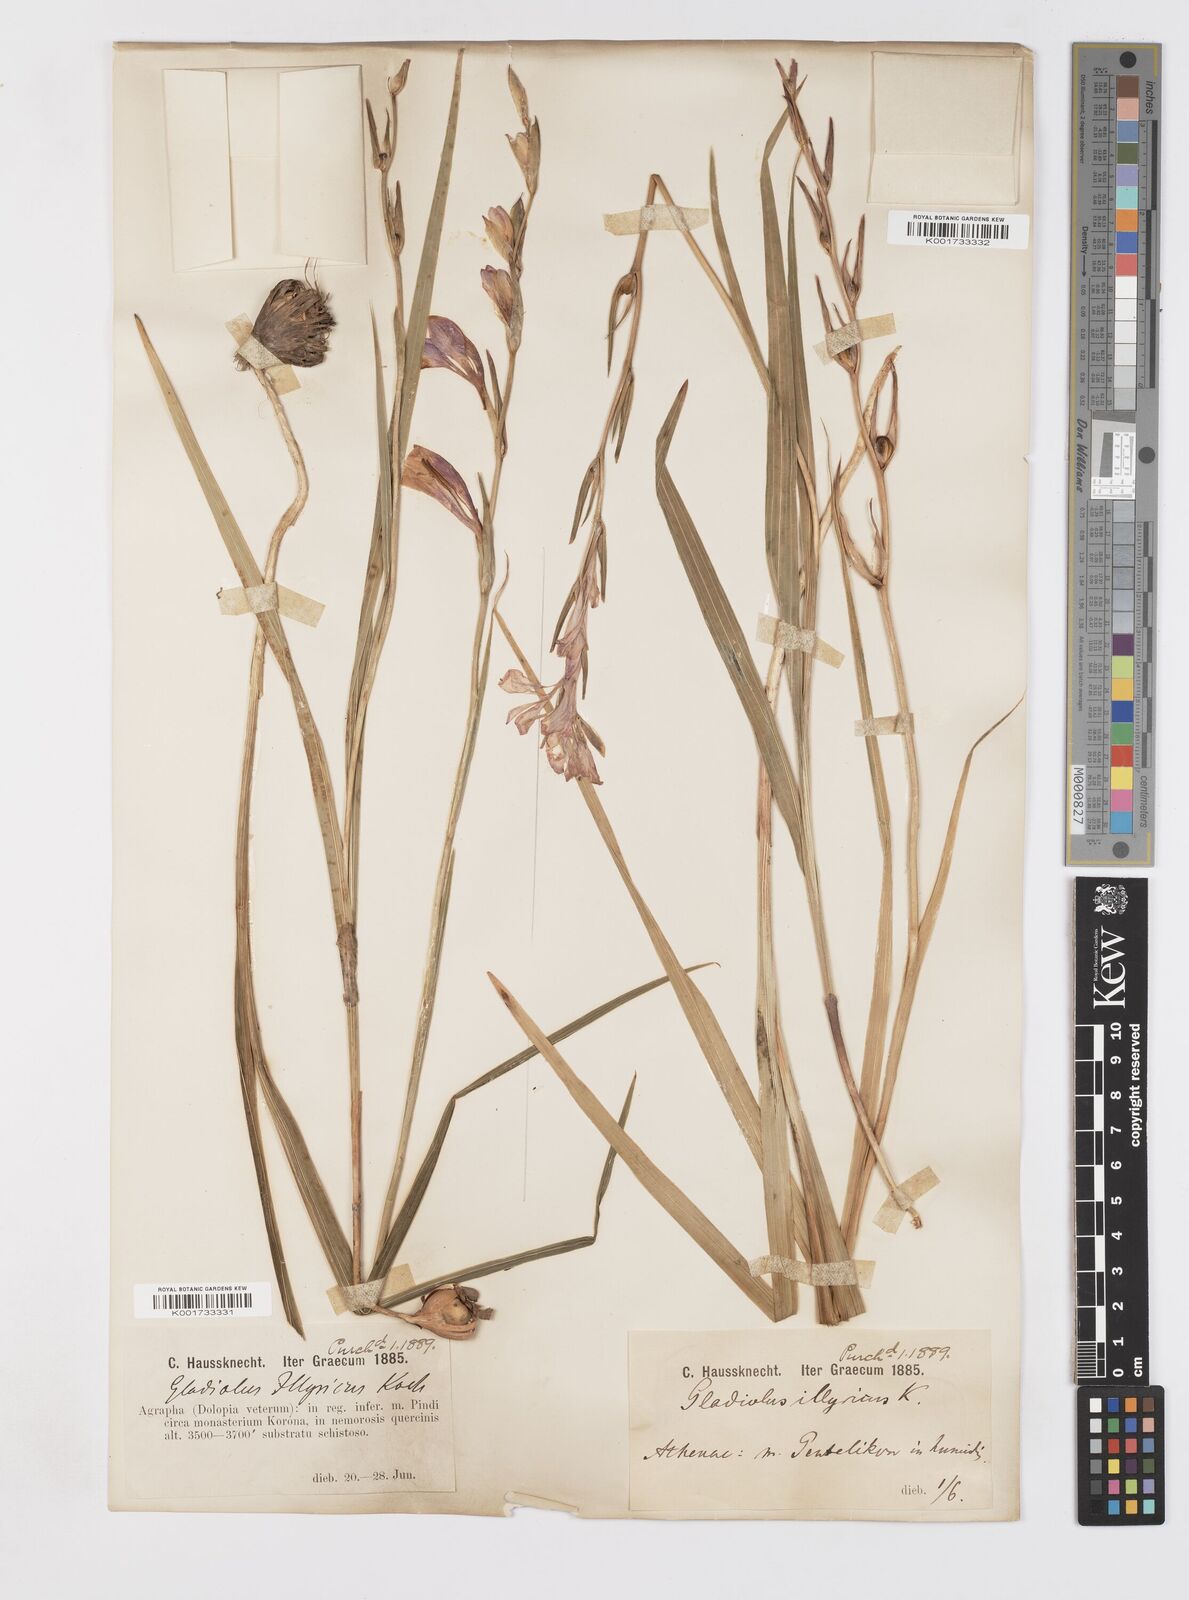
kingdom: Plantae
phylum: Tracheophyta
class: Liliopsida
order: Asparagales
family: Iridaceae
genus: Gladiolus
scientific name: Gladiolus illyricus
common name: Wild gladiolus
